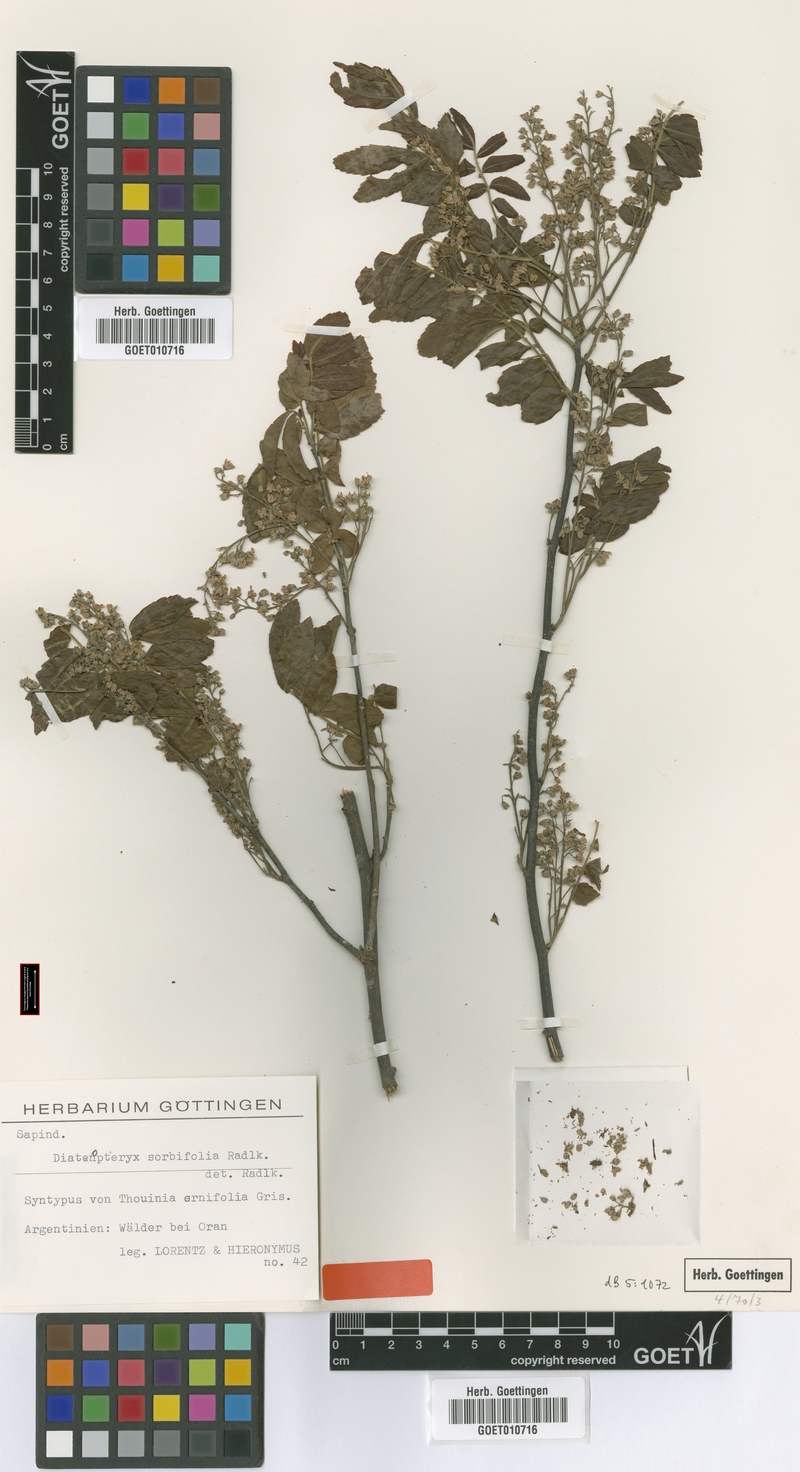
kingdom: Plantae
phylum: Tracheophyta
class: Magnoliopsida
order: Sapindales
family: Sapindaceae
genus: Diatenopteryx
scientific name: Diatenopteryx sorbifolia
